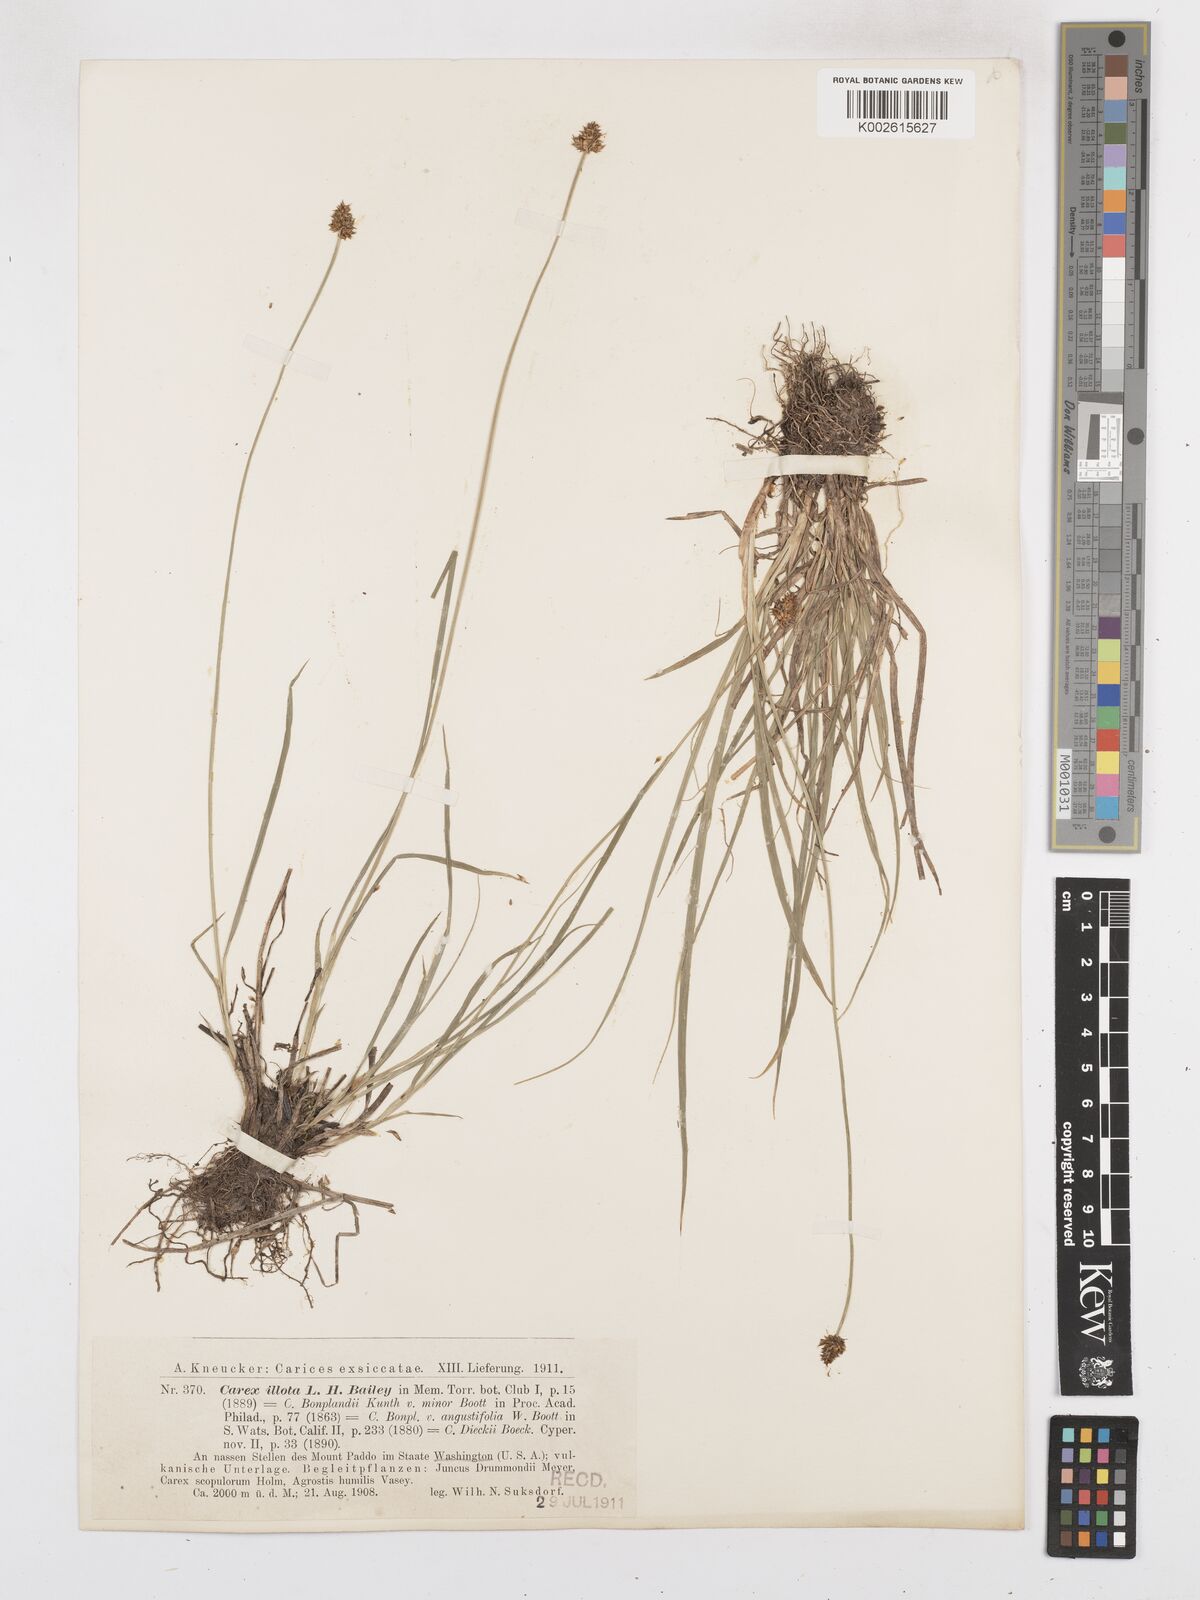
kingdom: Plantae
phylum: Tracheophyta
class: Liliopsida
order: Poales
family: Cyperaceae
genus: Carex
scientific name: Carex illota
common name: Sheep sedge
